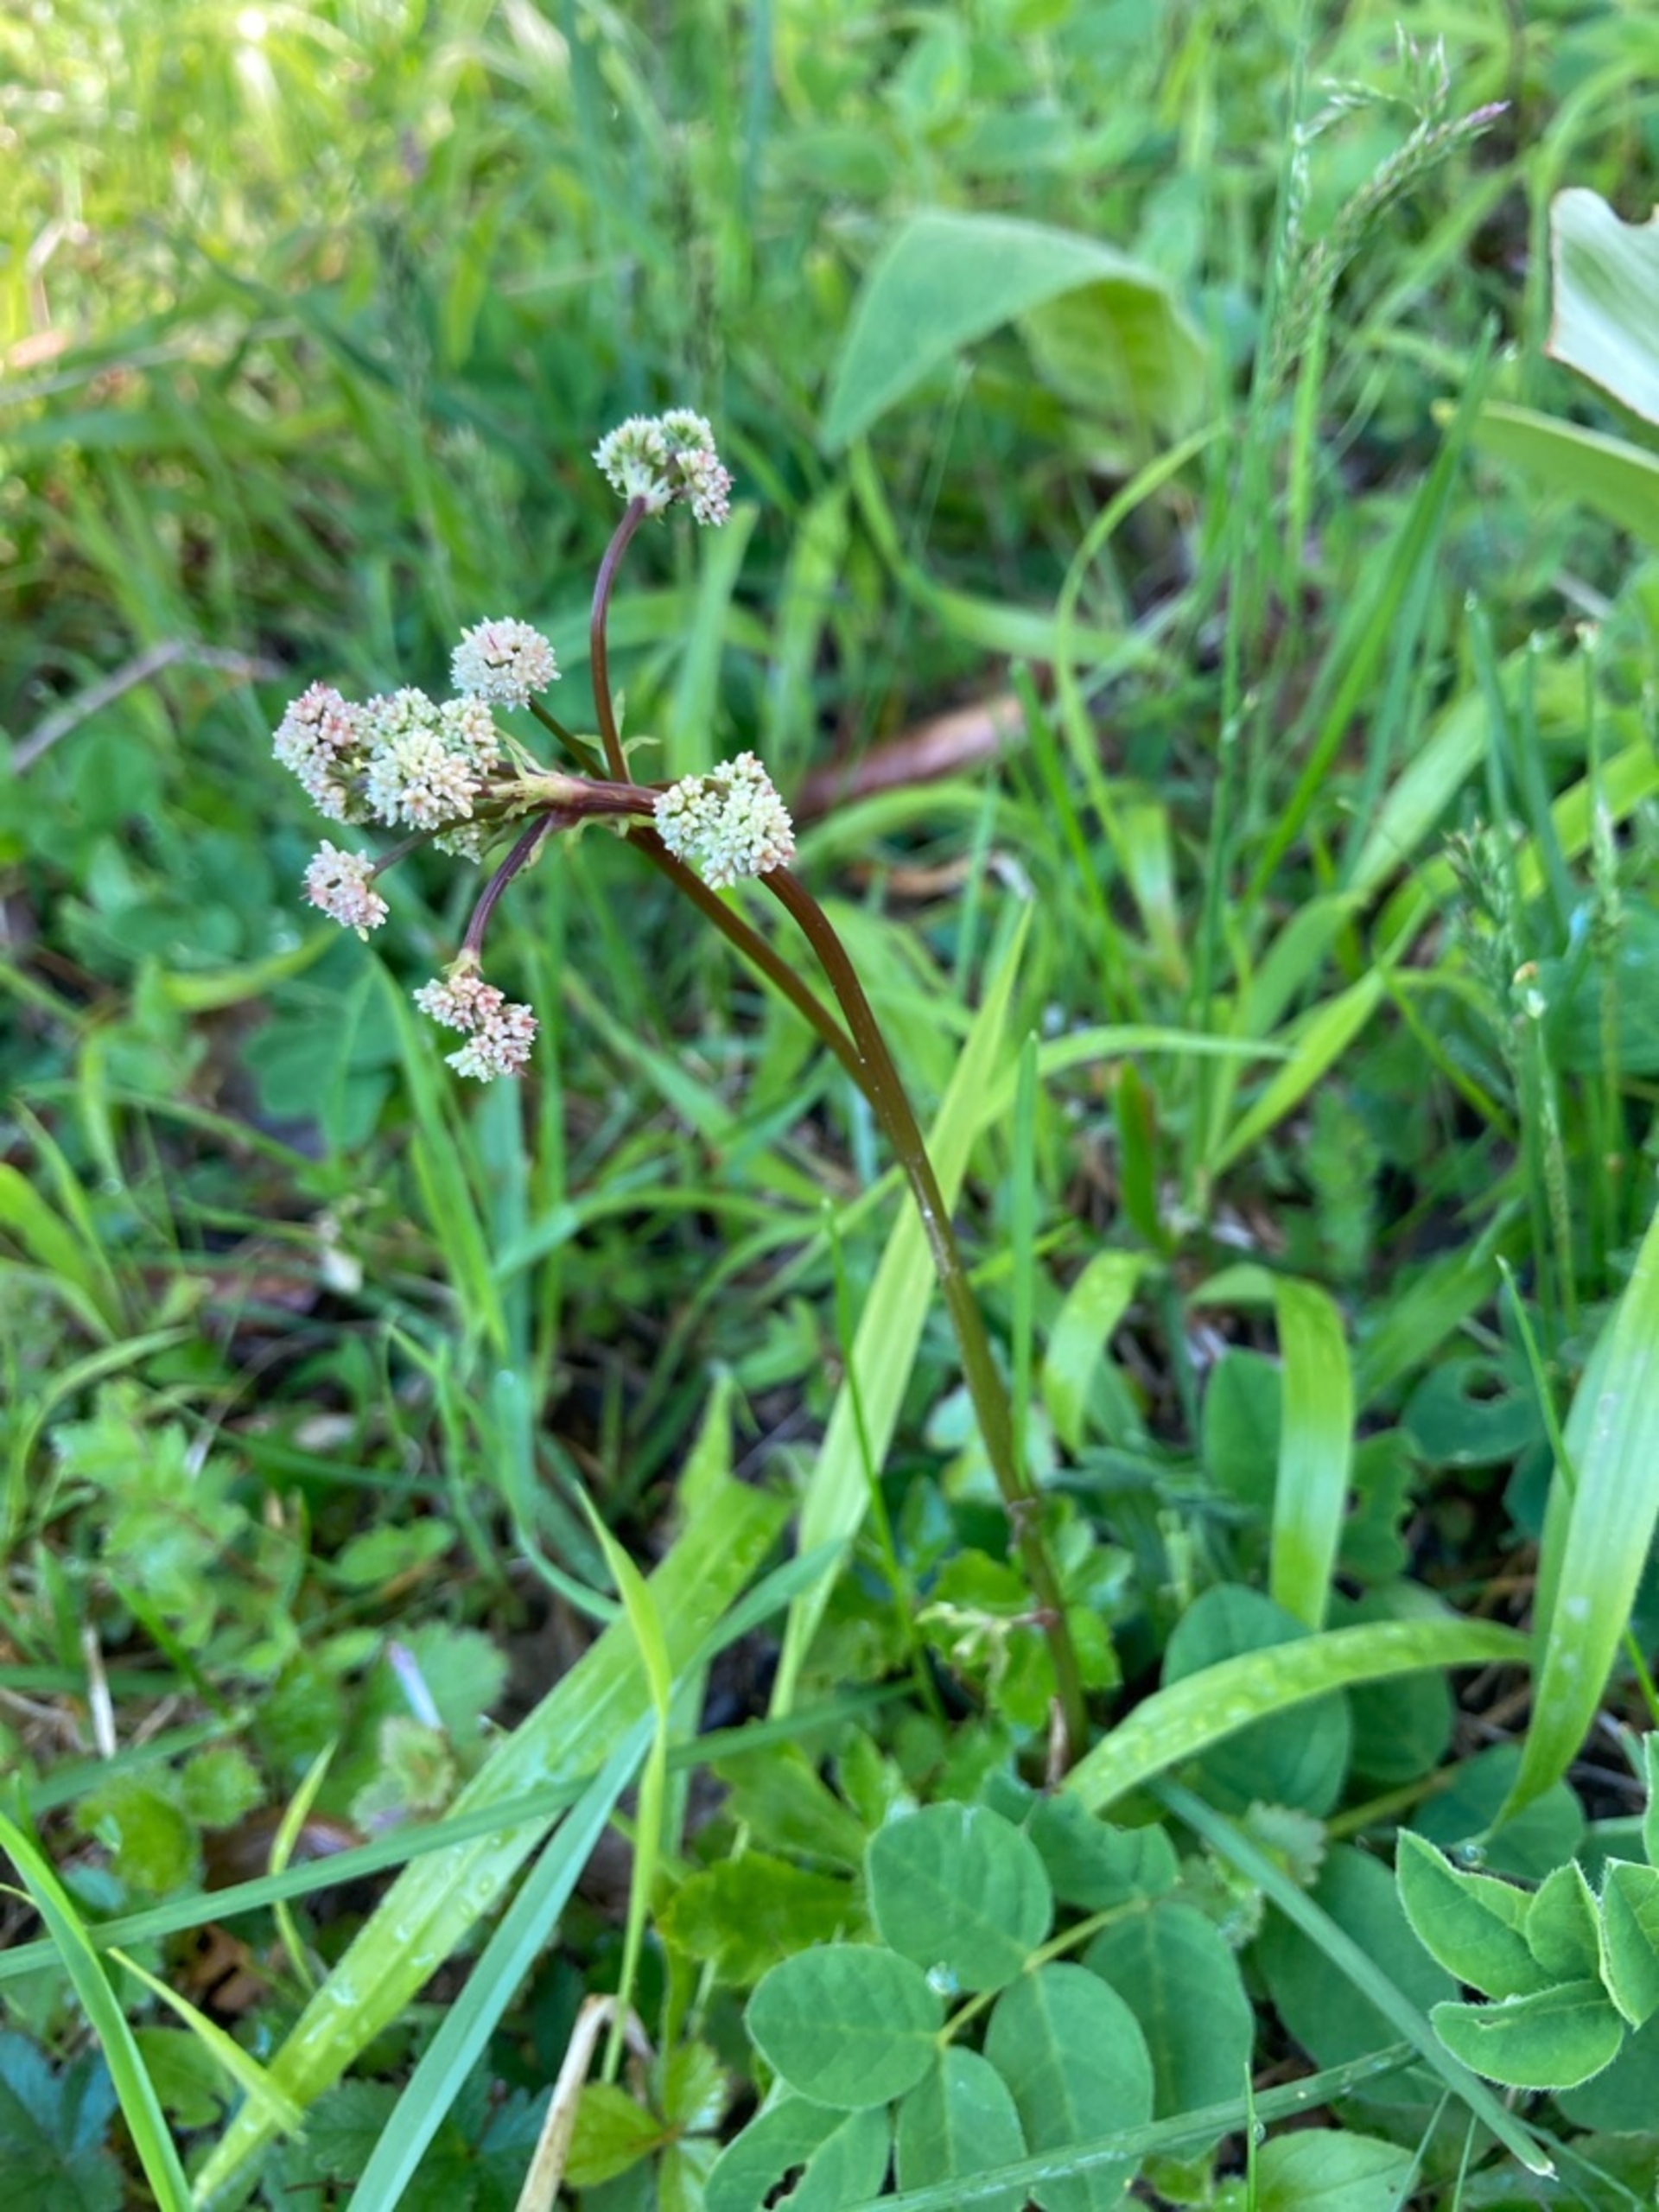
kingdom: Plantae
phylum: Tracheophyta
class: Magnoliopsida
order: Apiales
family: Apiaceae
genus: Sanicula
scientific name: Sanicula europaea
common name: Sanikel
